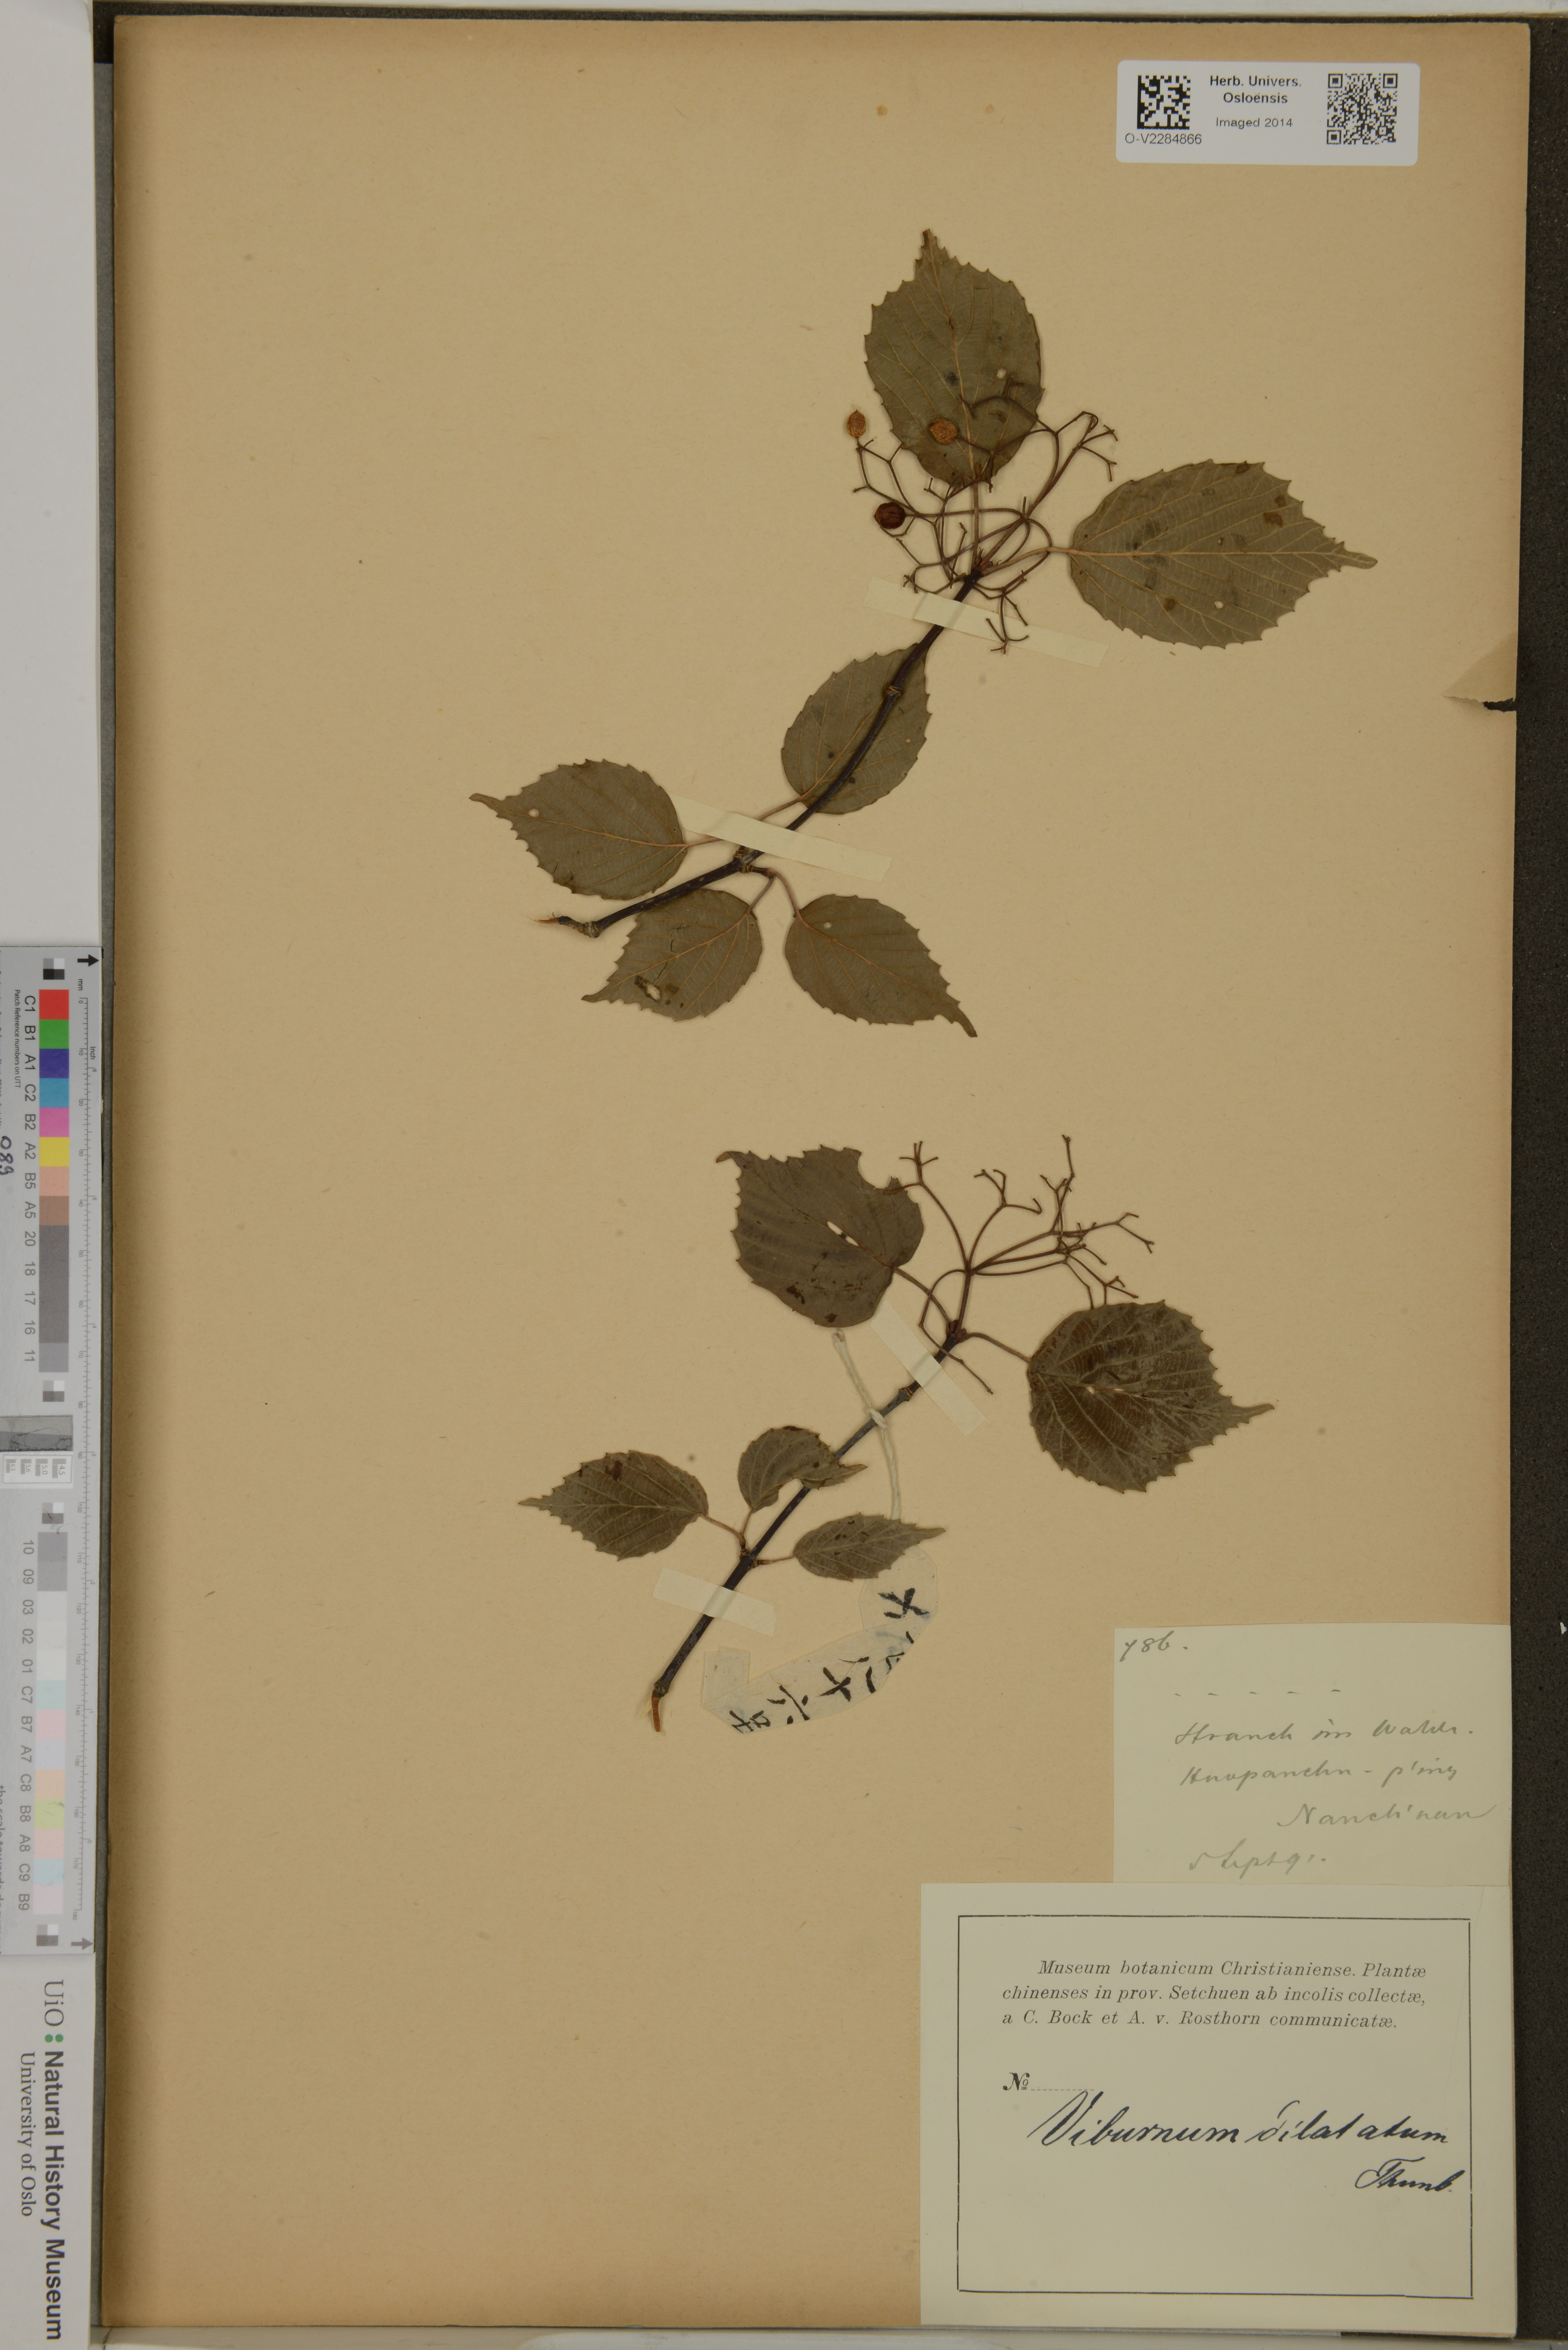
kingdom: Plantae
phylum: Tracheophyta
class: Magnoliopsida
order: Dipsacales
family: Viburnaceae
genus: Viburnum
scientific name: Viburnum dilatatum
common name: Linden arrowwood
